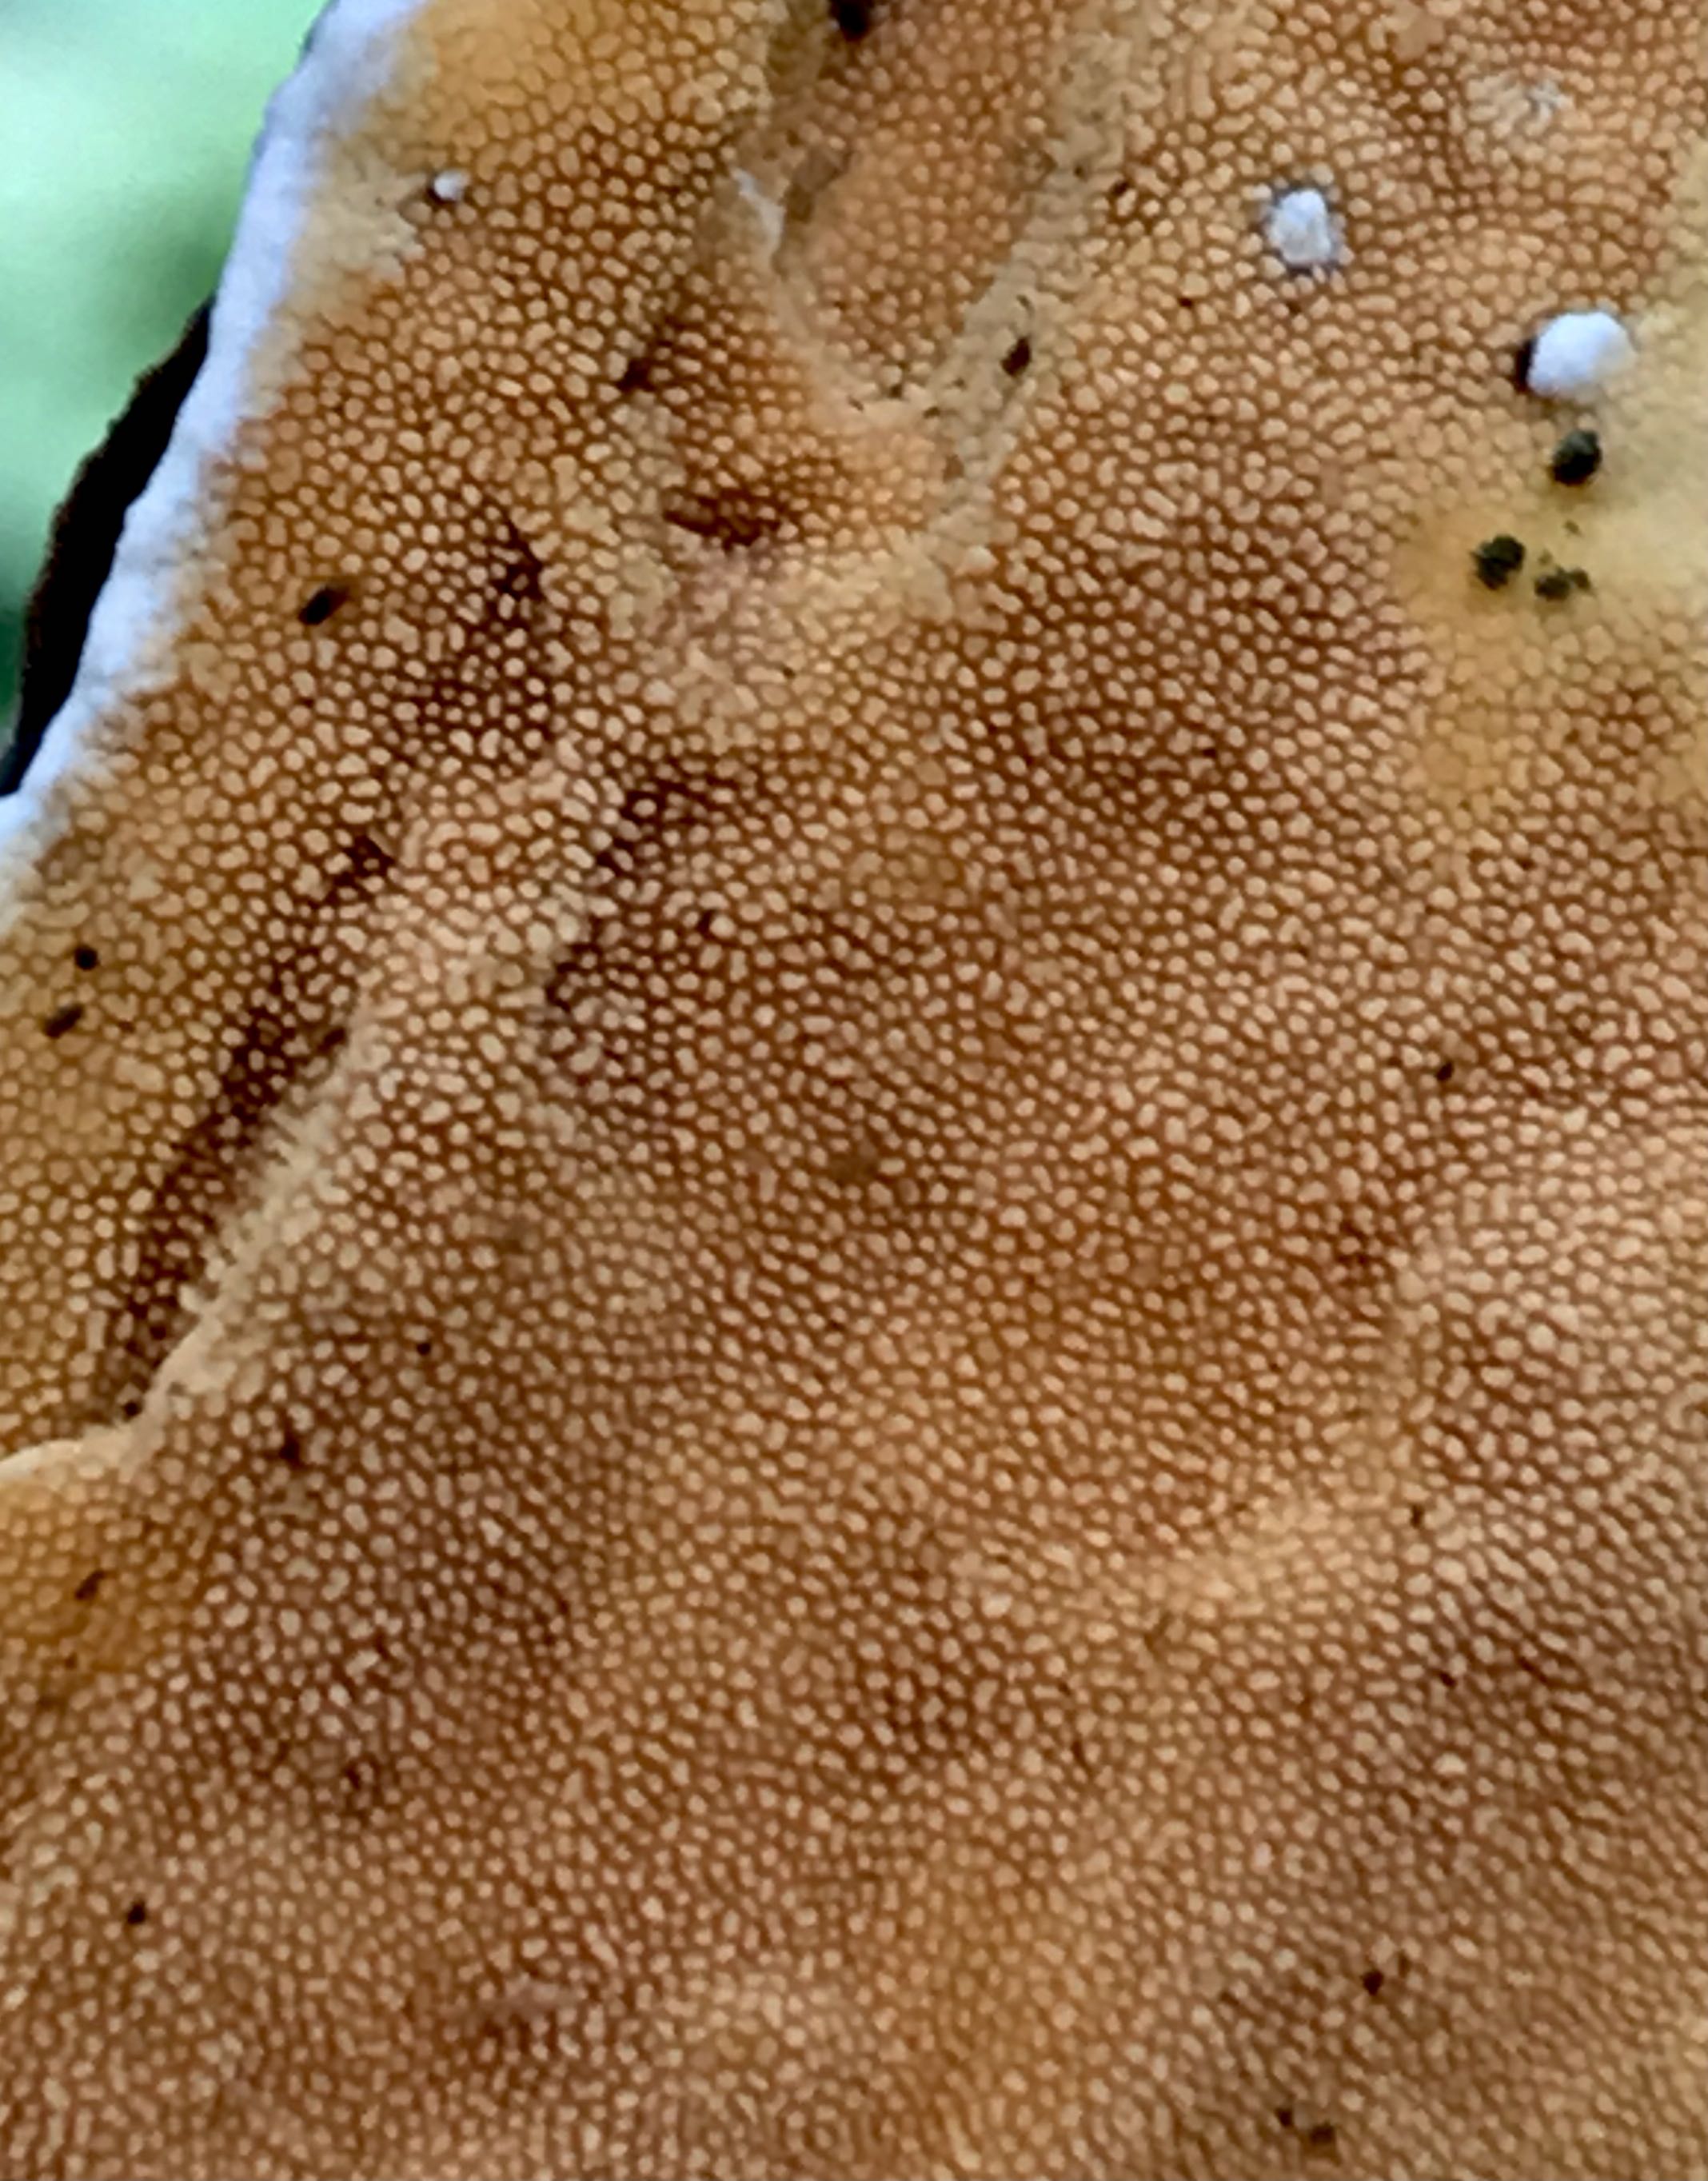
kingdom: Fungi
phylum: Basidiomycota
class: Agaricomycetes
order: Polyporales
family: Steccherinaceae
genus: Steccherinum
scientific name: Steccherinum ochraceum
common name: almindelig skønpig
